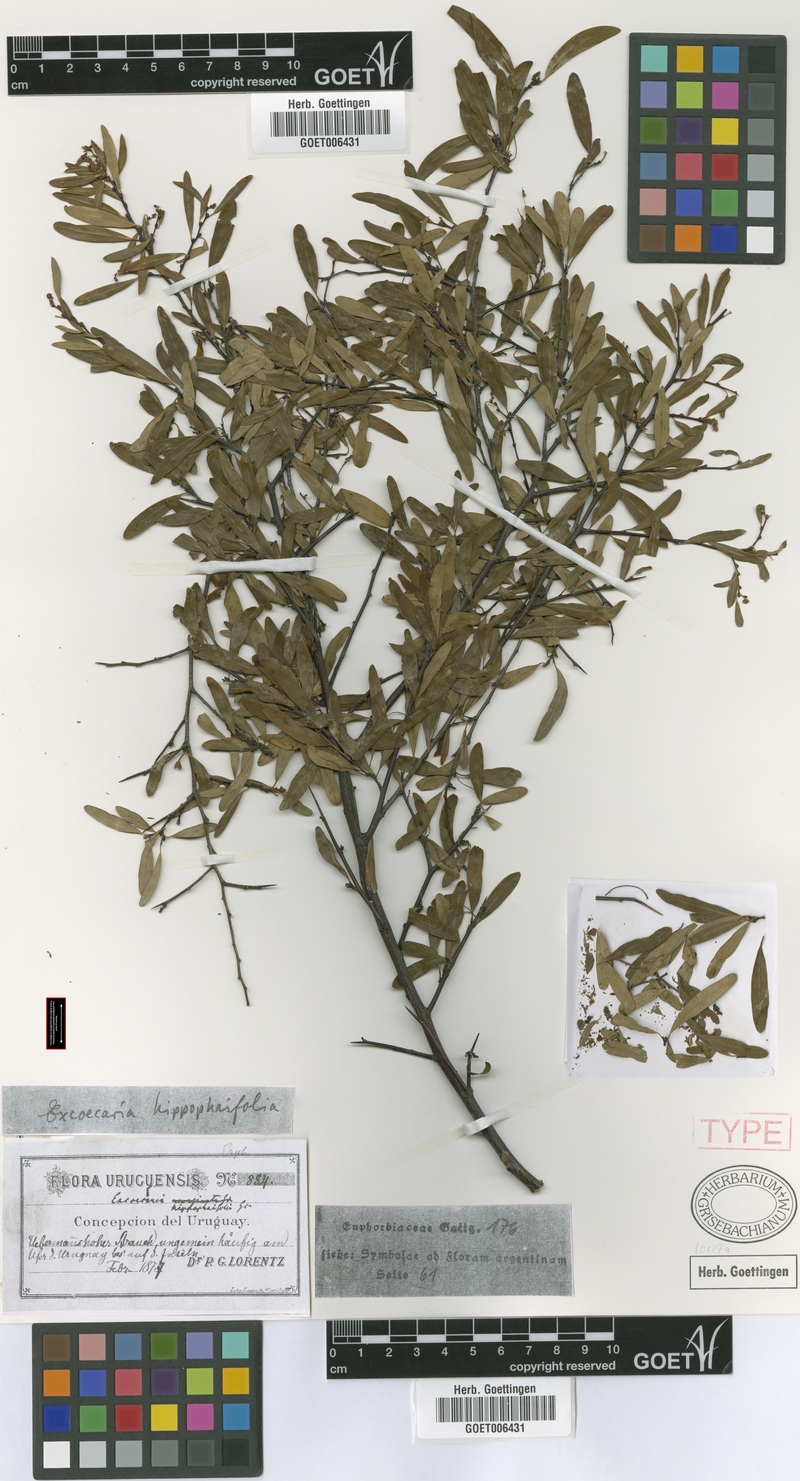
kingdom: Plantae
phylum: Tracheophyta
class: Magnoliopsida
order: Malpighiales
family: Euphorbiaceae
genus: Sebastiania
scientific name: Sebastiania schottiana
